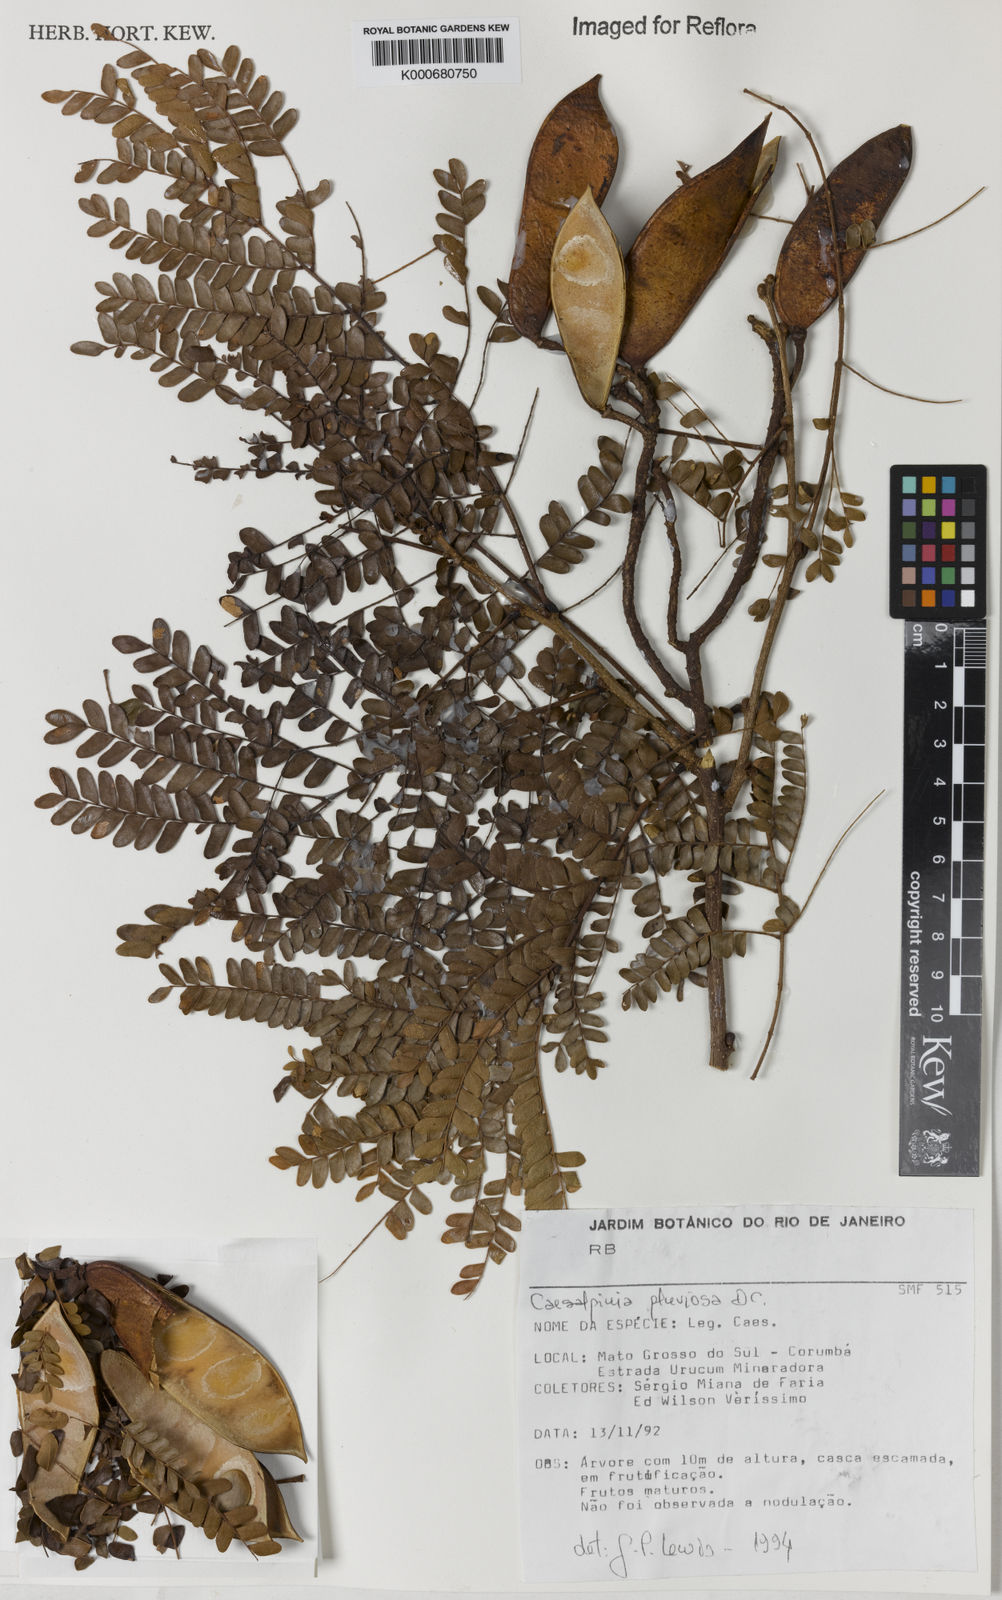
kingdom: Plantae
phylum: Tracheophyta
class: Magnoliopsida
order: Fabales
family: Fabaceae
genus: Cenostigma
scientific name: Cenostigma pluviosum
